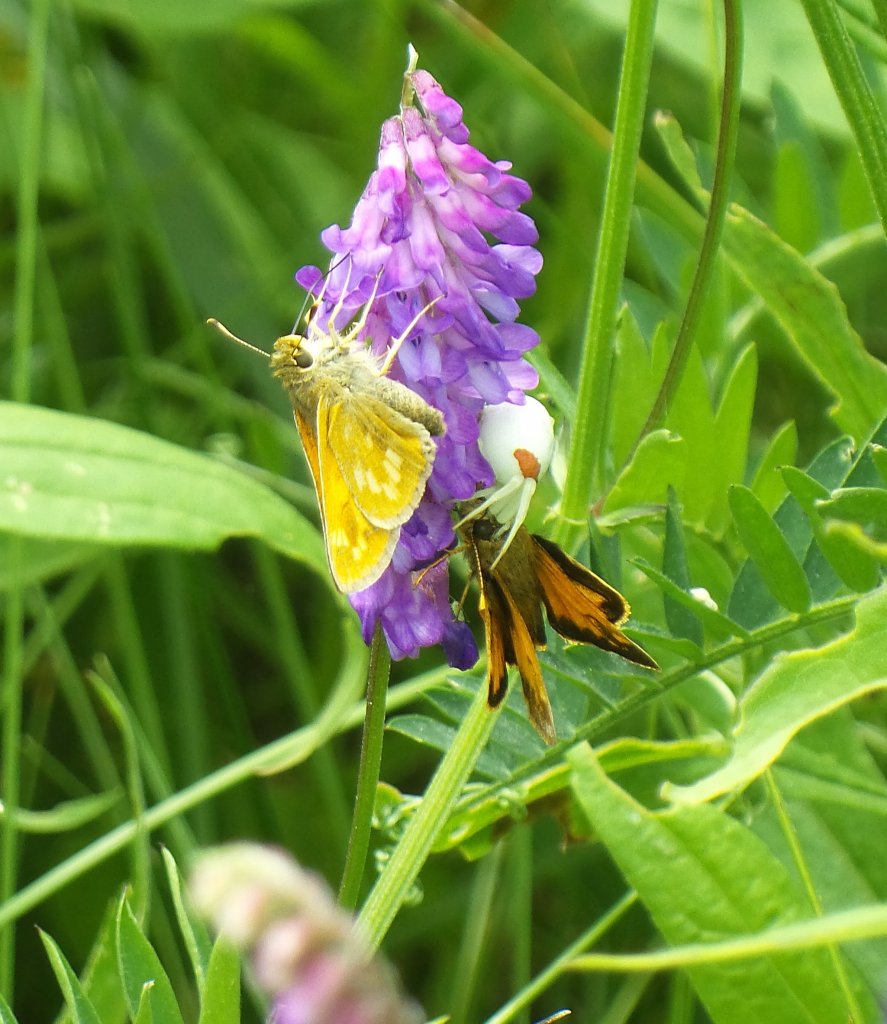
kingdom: Animalia
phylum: Arthropoda
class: Insecta
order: Lepidoptera
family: Hesperiidae
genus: Hesperia
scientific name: Hesperia sassacus
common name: Sassacus Skipper
